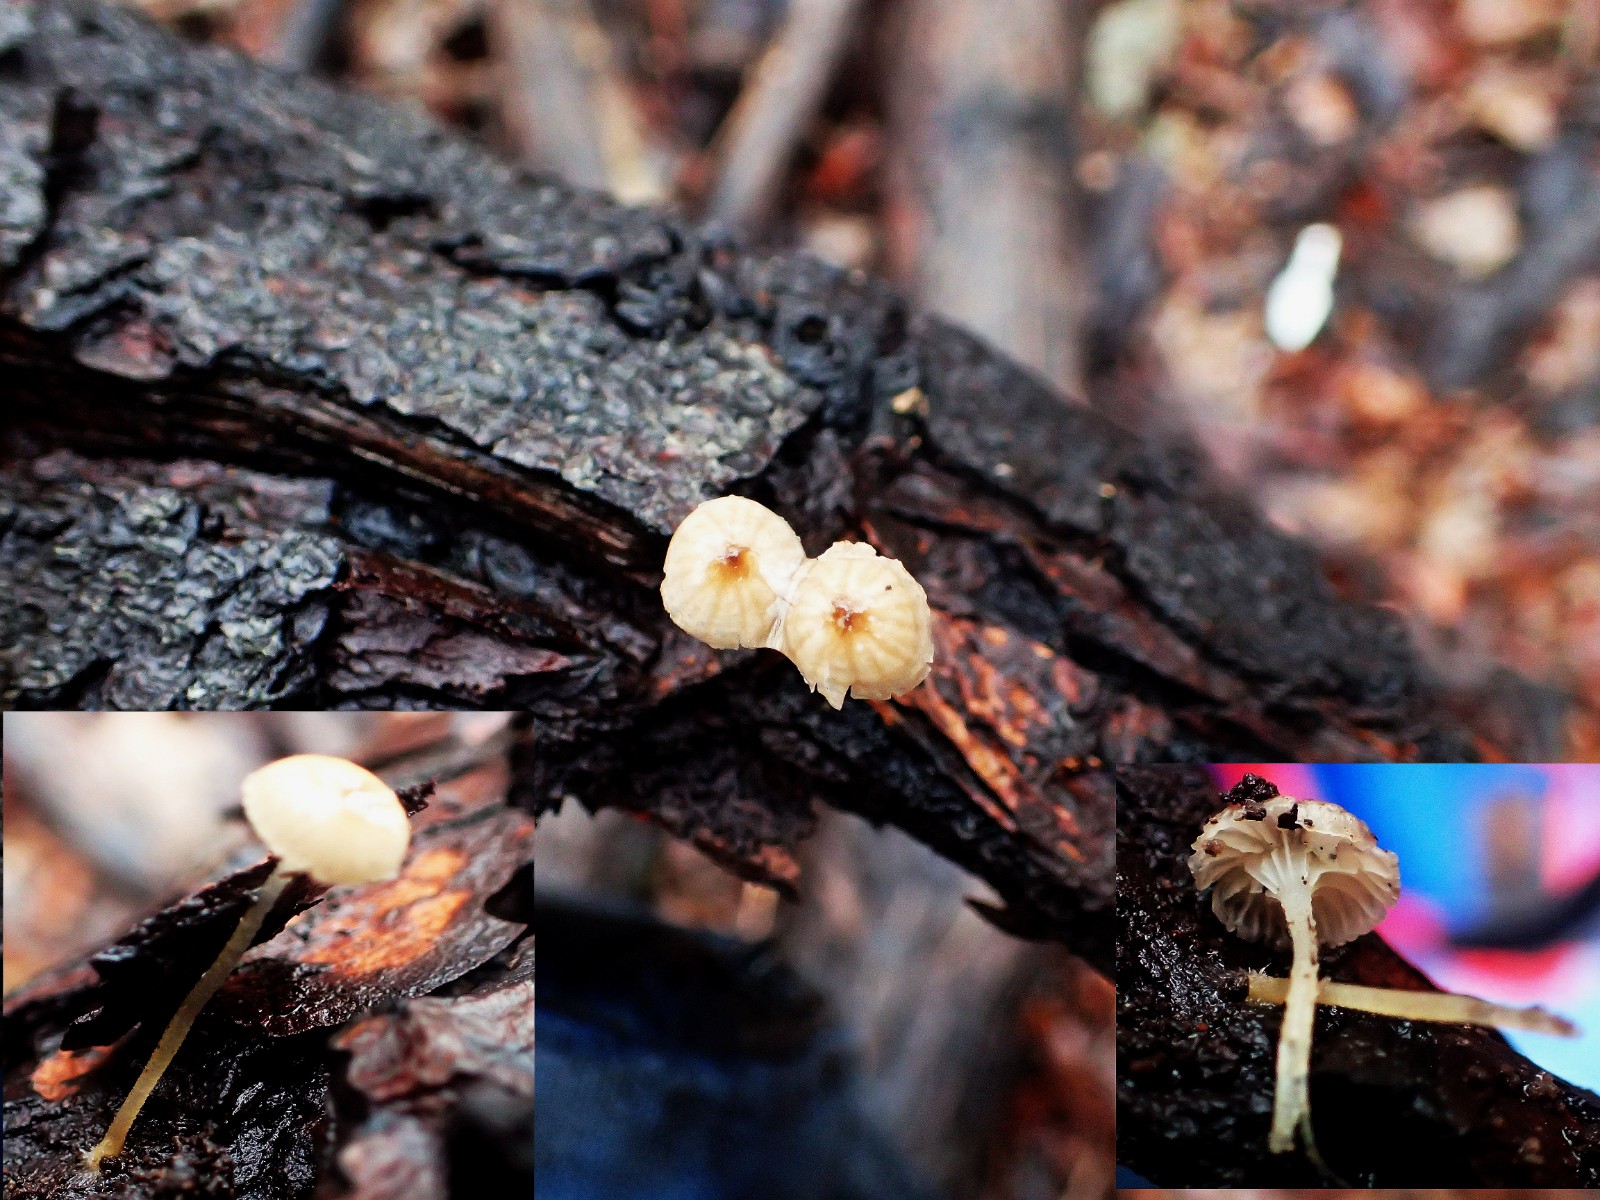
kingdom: Fungi
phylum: Basidiomycota
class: Agaricomycetes
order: Agaricales
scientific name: Agaricales
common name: champignonordenen
